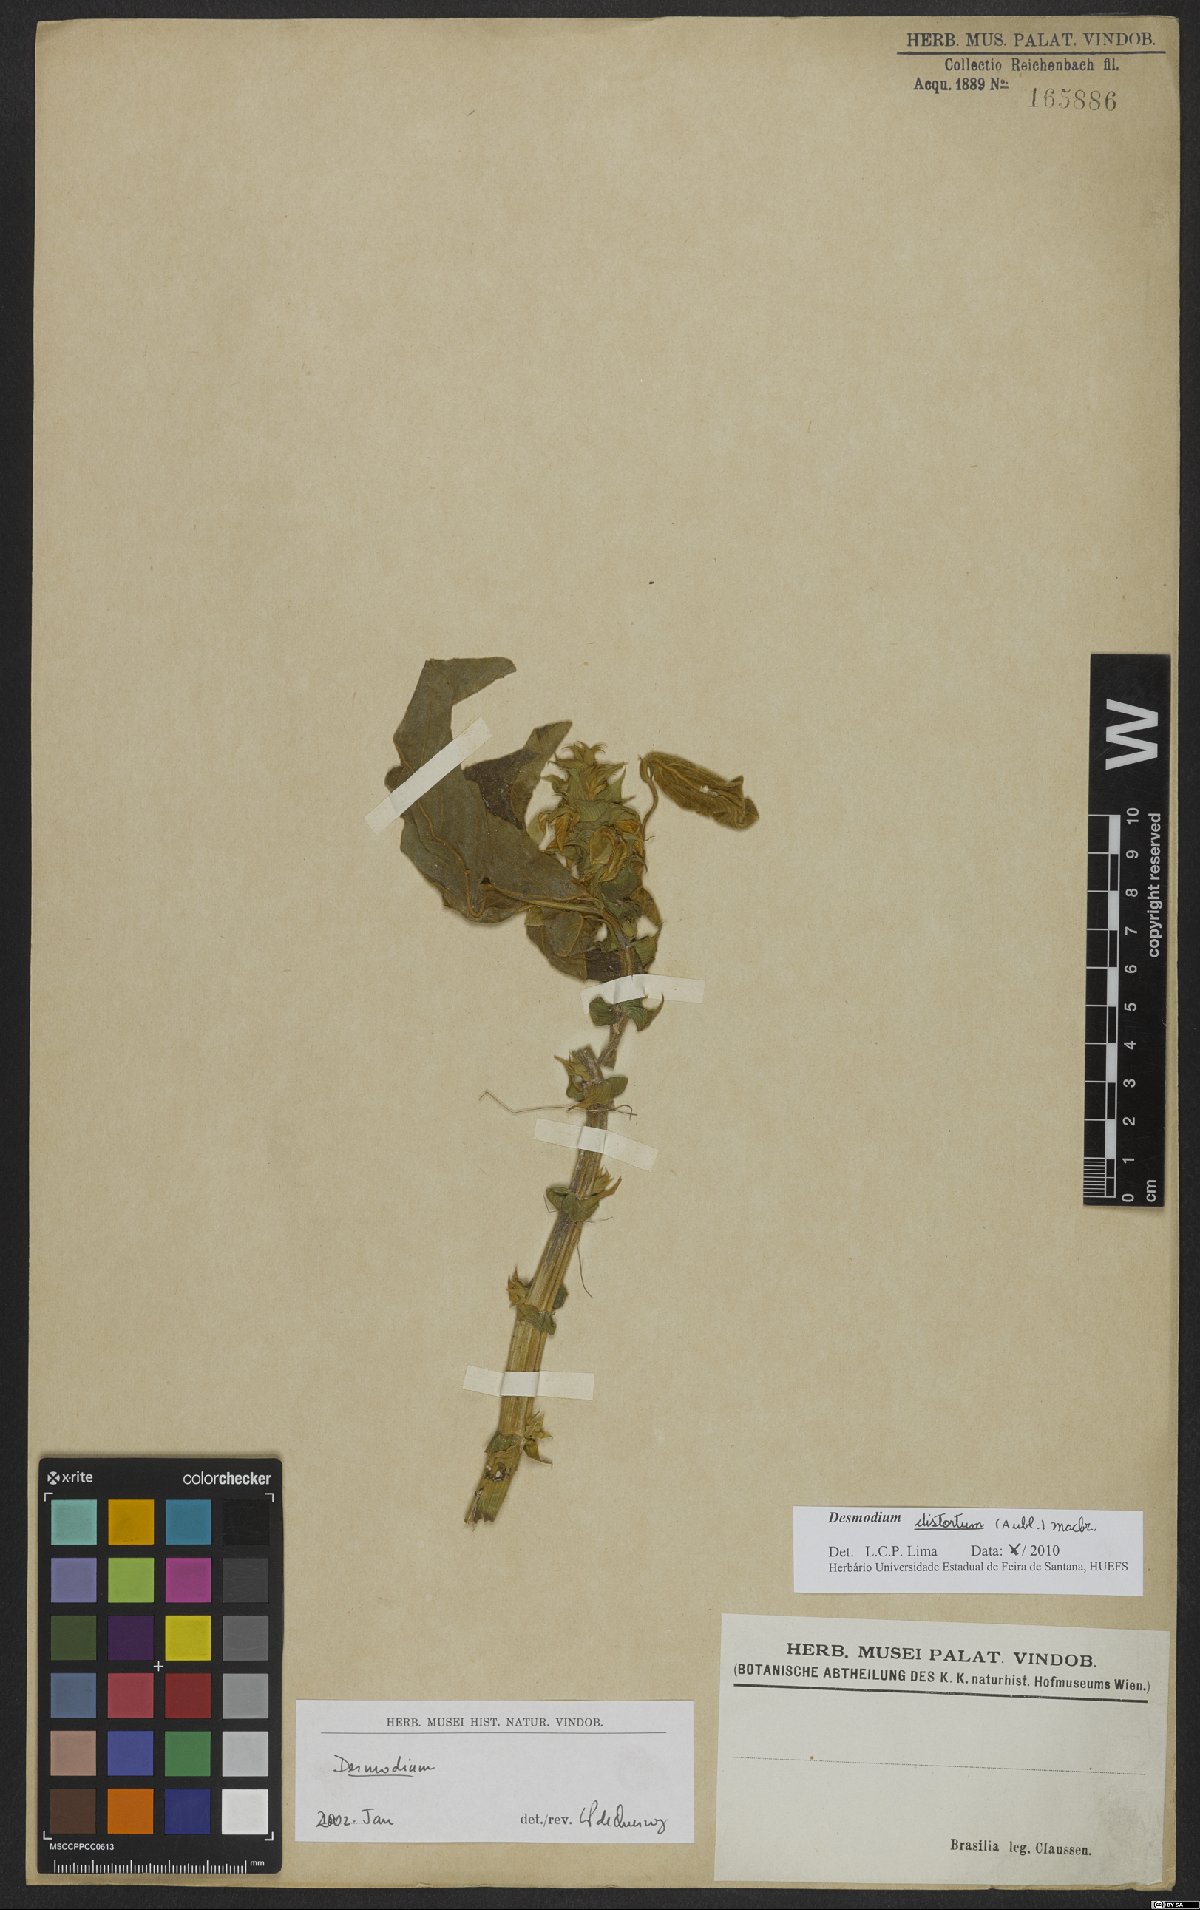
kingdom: Plantae
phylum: Tracheophyta
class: Magnoliopsida
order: Fabales
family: Fabaceae
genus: Desmodium
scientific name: Desmodium distortum
